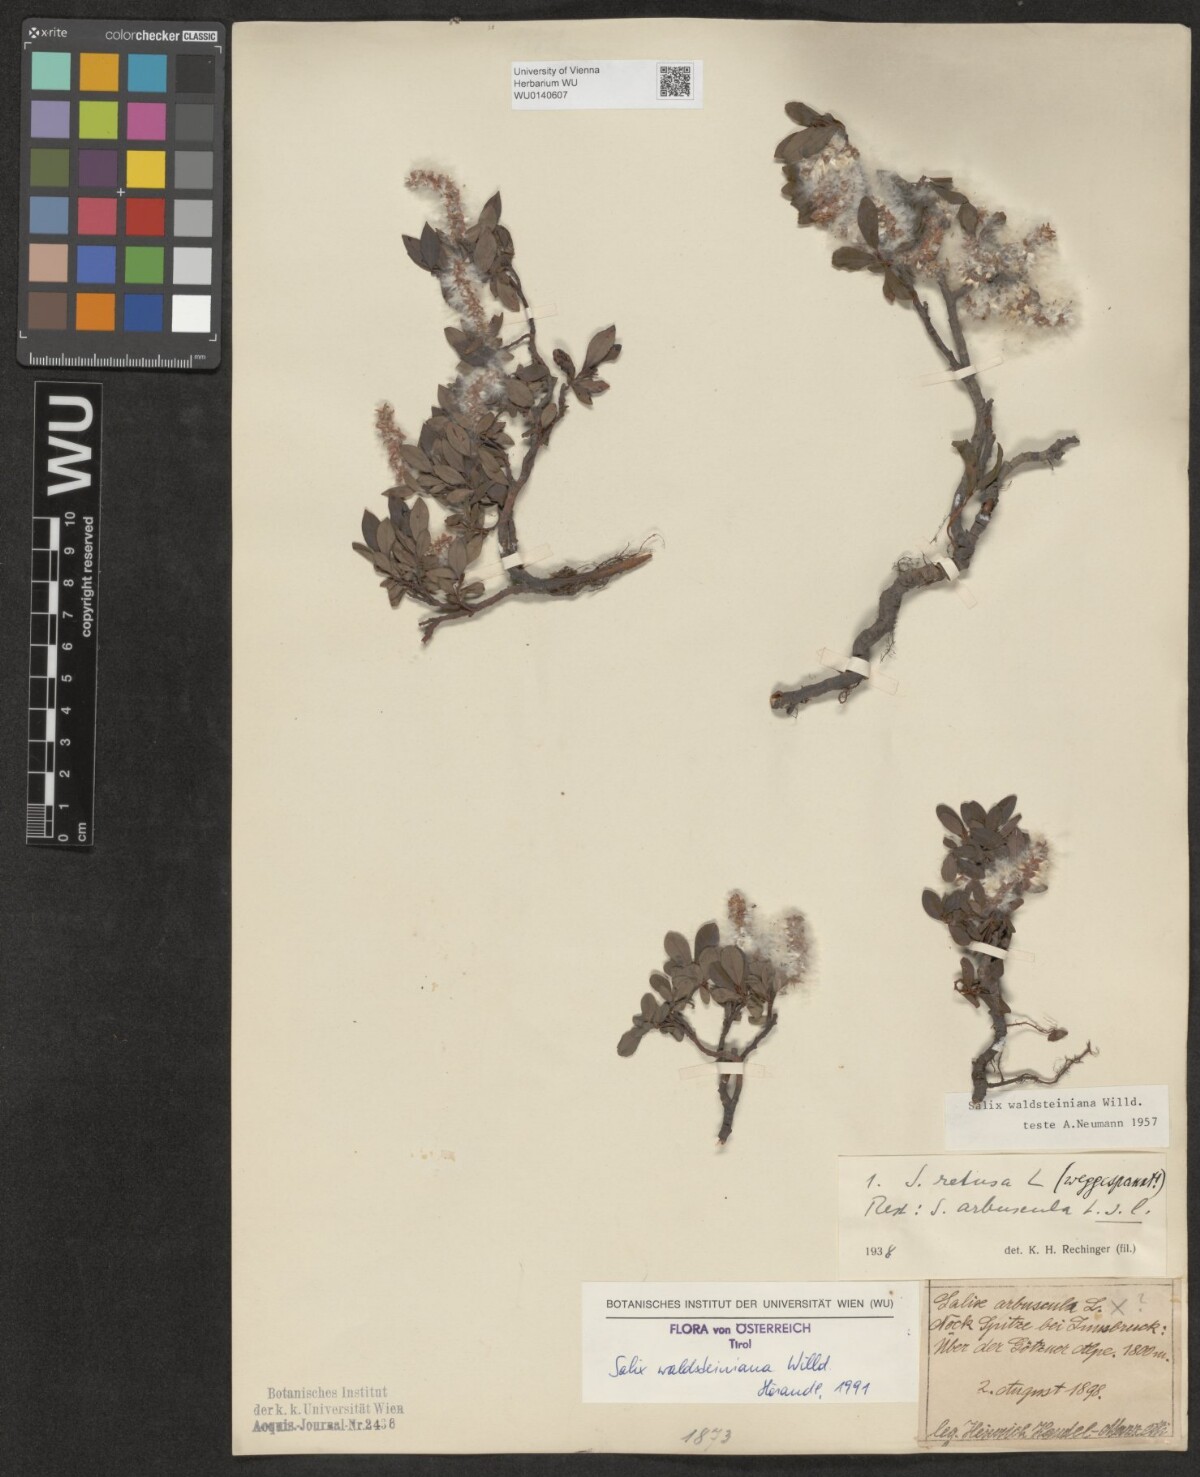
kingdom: Plantae
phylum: Tracheophyta
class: Magnoliopsida
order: Malpighiales
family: Salicaceae
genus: Salix
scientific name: Salix waldsteiniana
